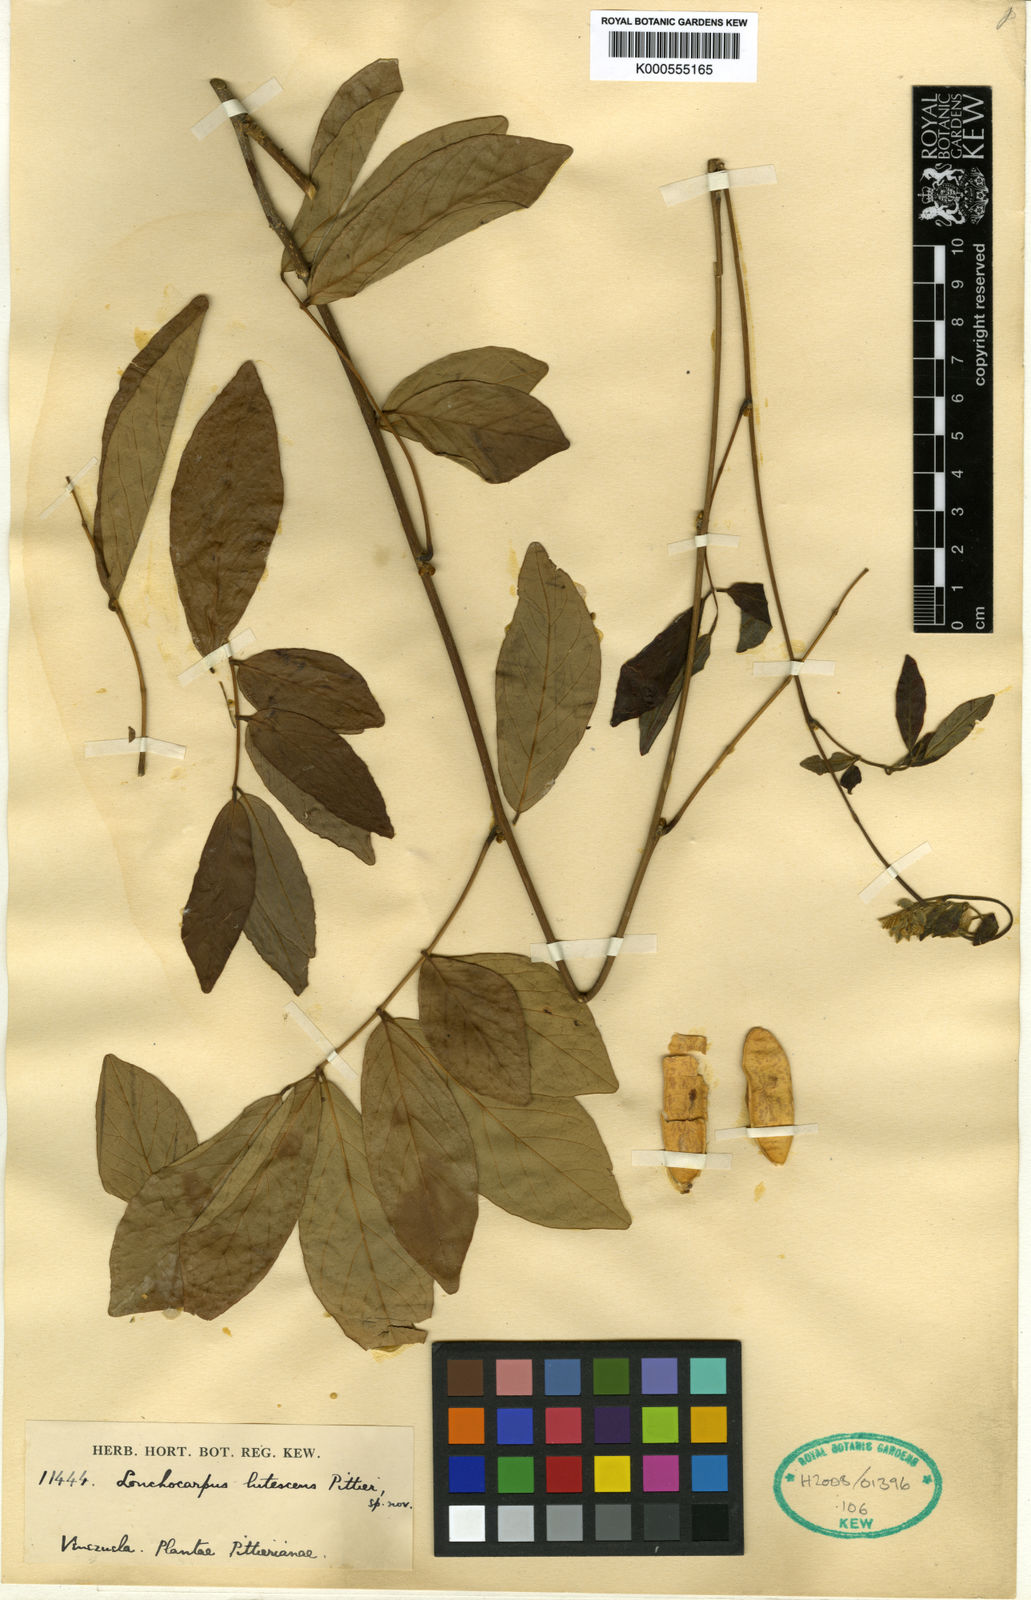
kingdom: Plantae
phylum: Tracheophyta
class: Magnoliopsida
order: Fabales
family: Fabaceae
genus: Muellera
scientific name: Muellera lutescens
